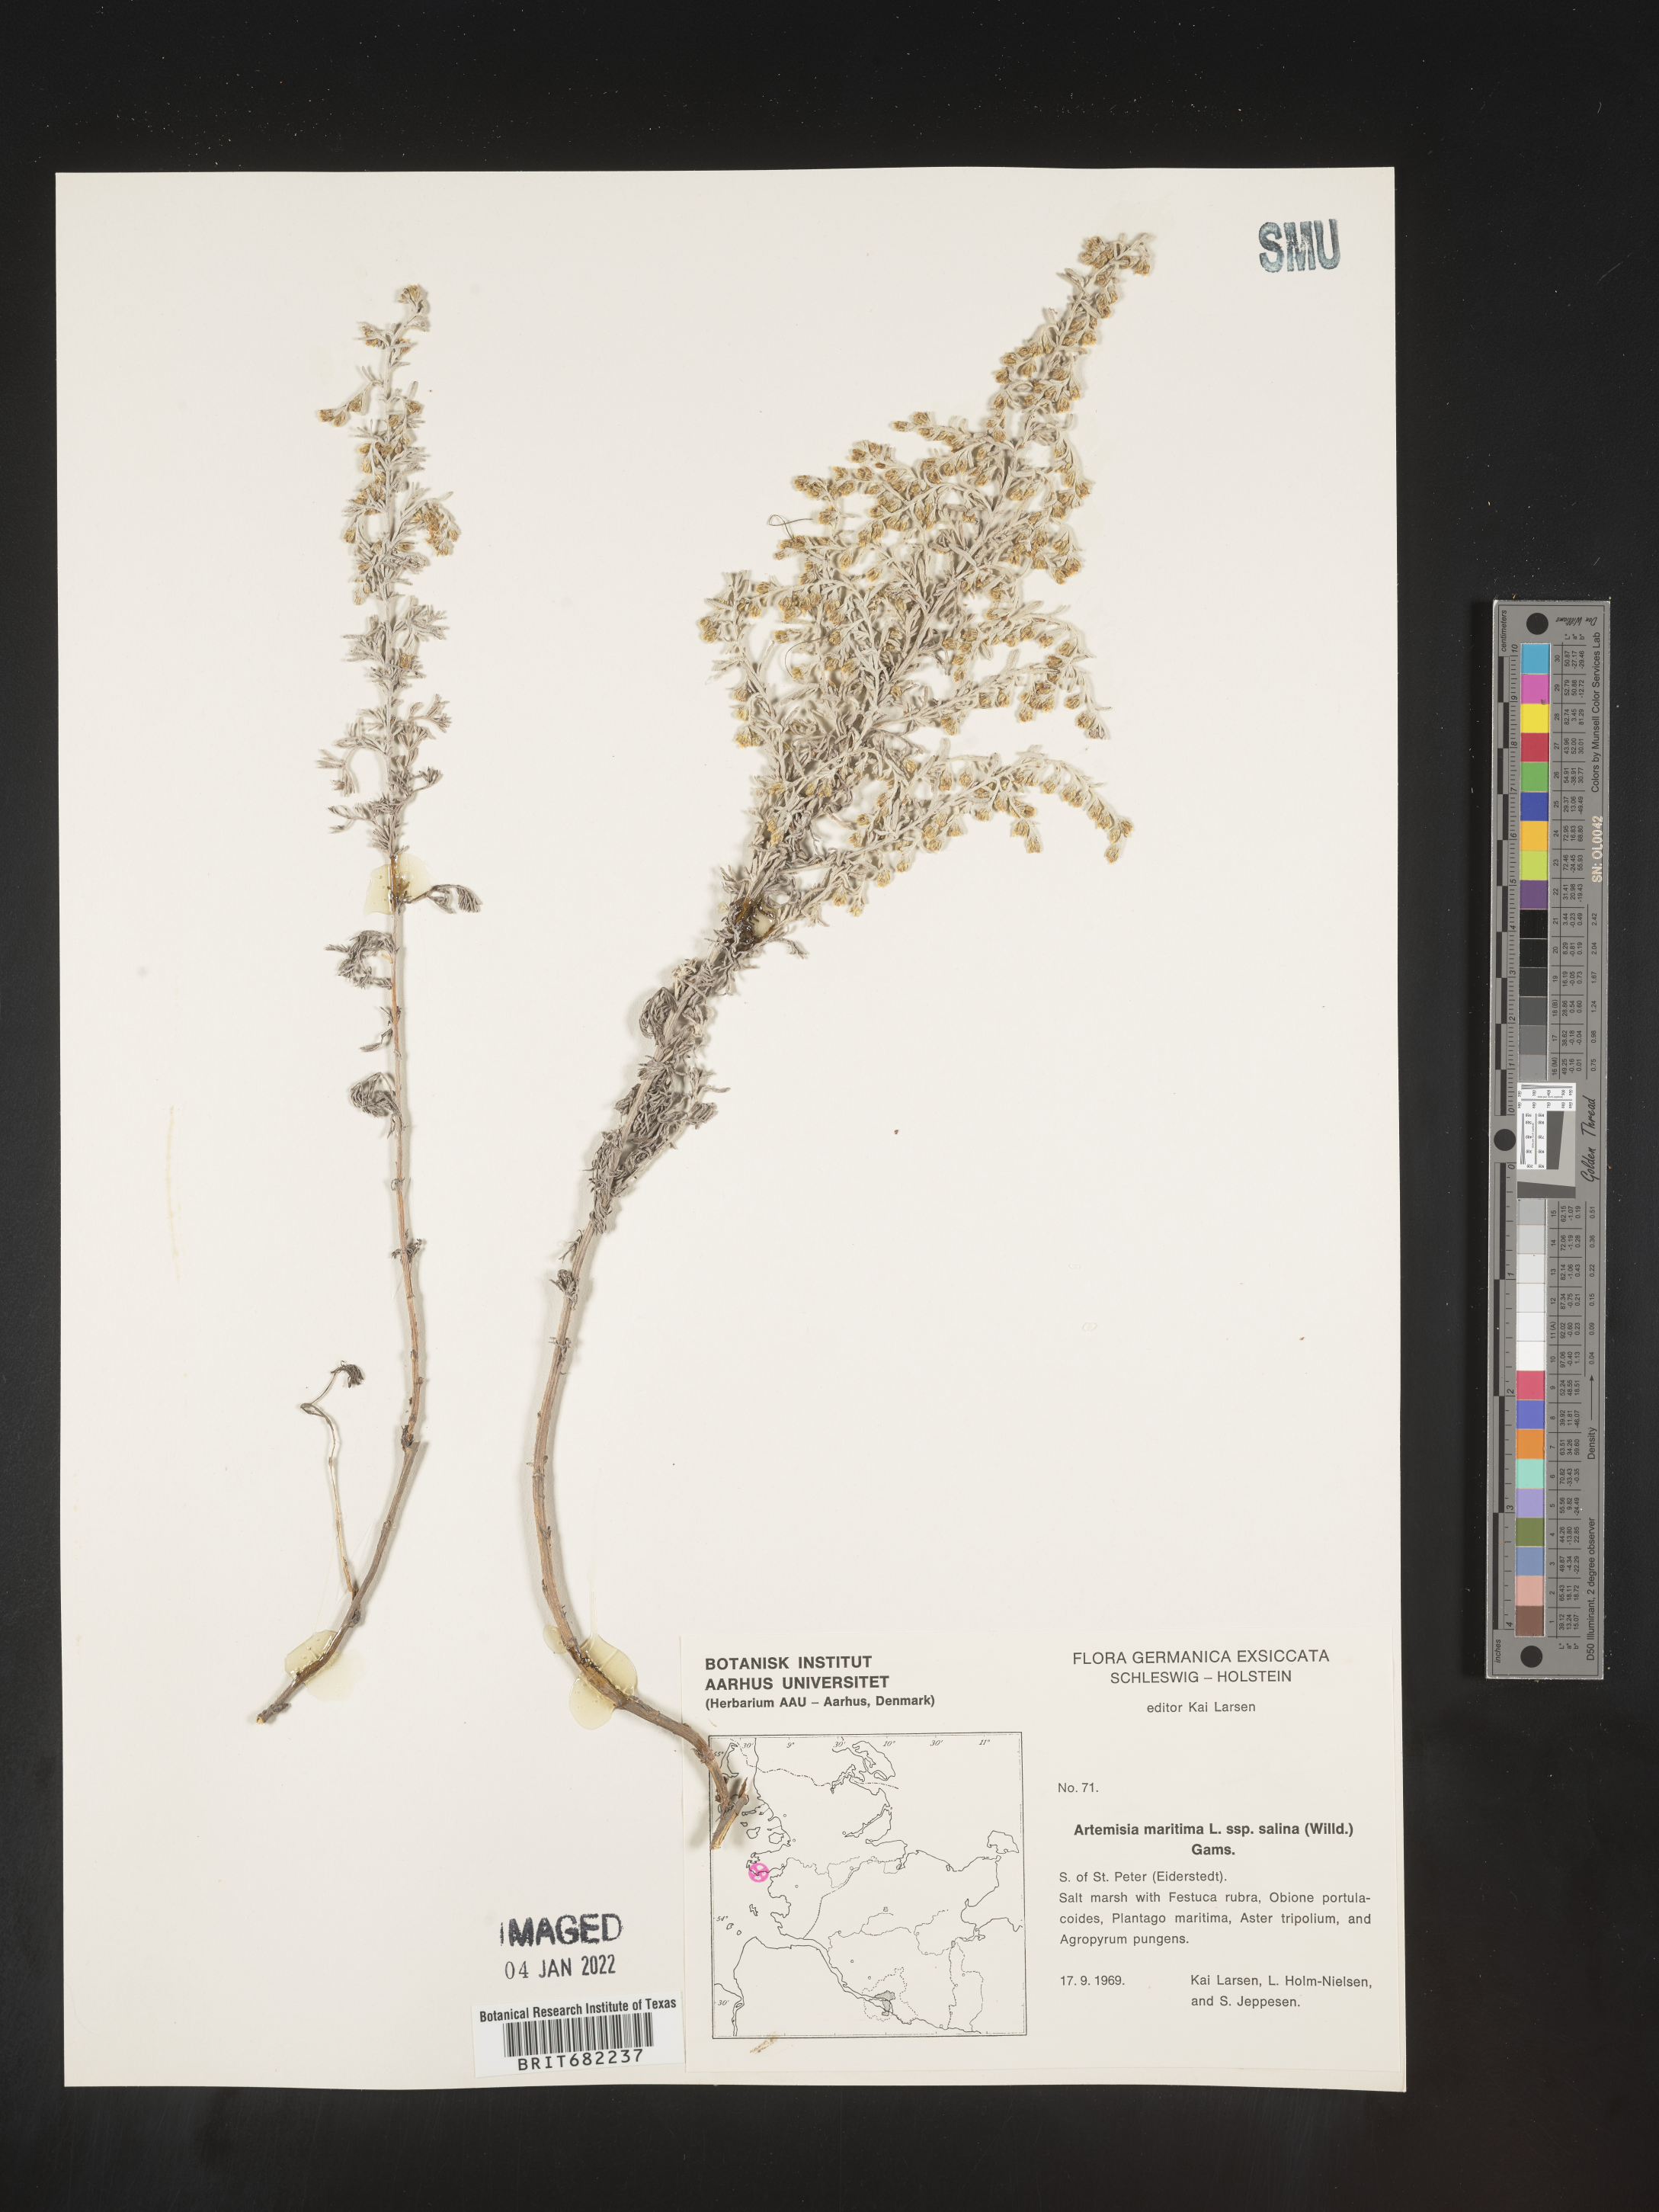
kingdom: Plantae
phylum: Tracheophyta
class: Magnoliopsida
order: Asterales
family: Asteraceae
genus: Artemisia
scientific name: Artemisia
